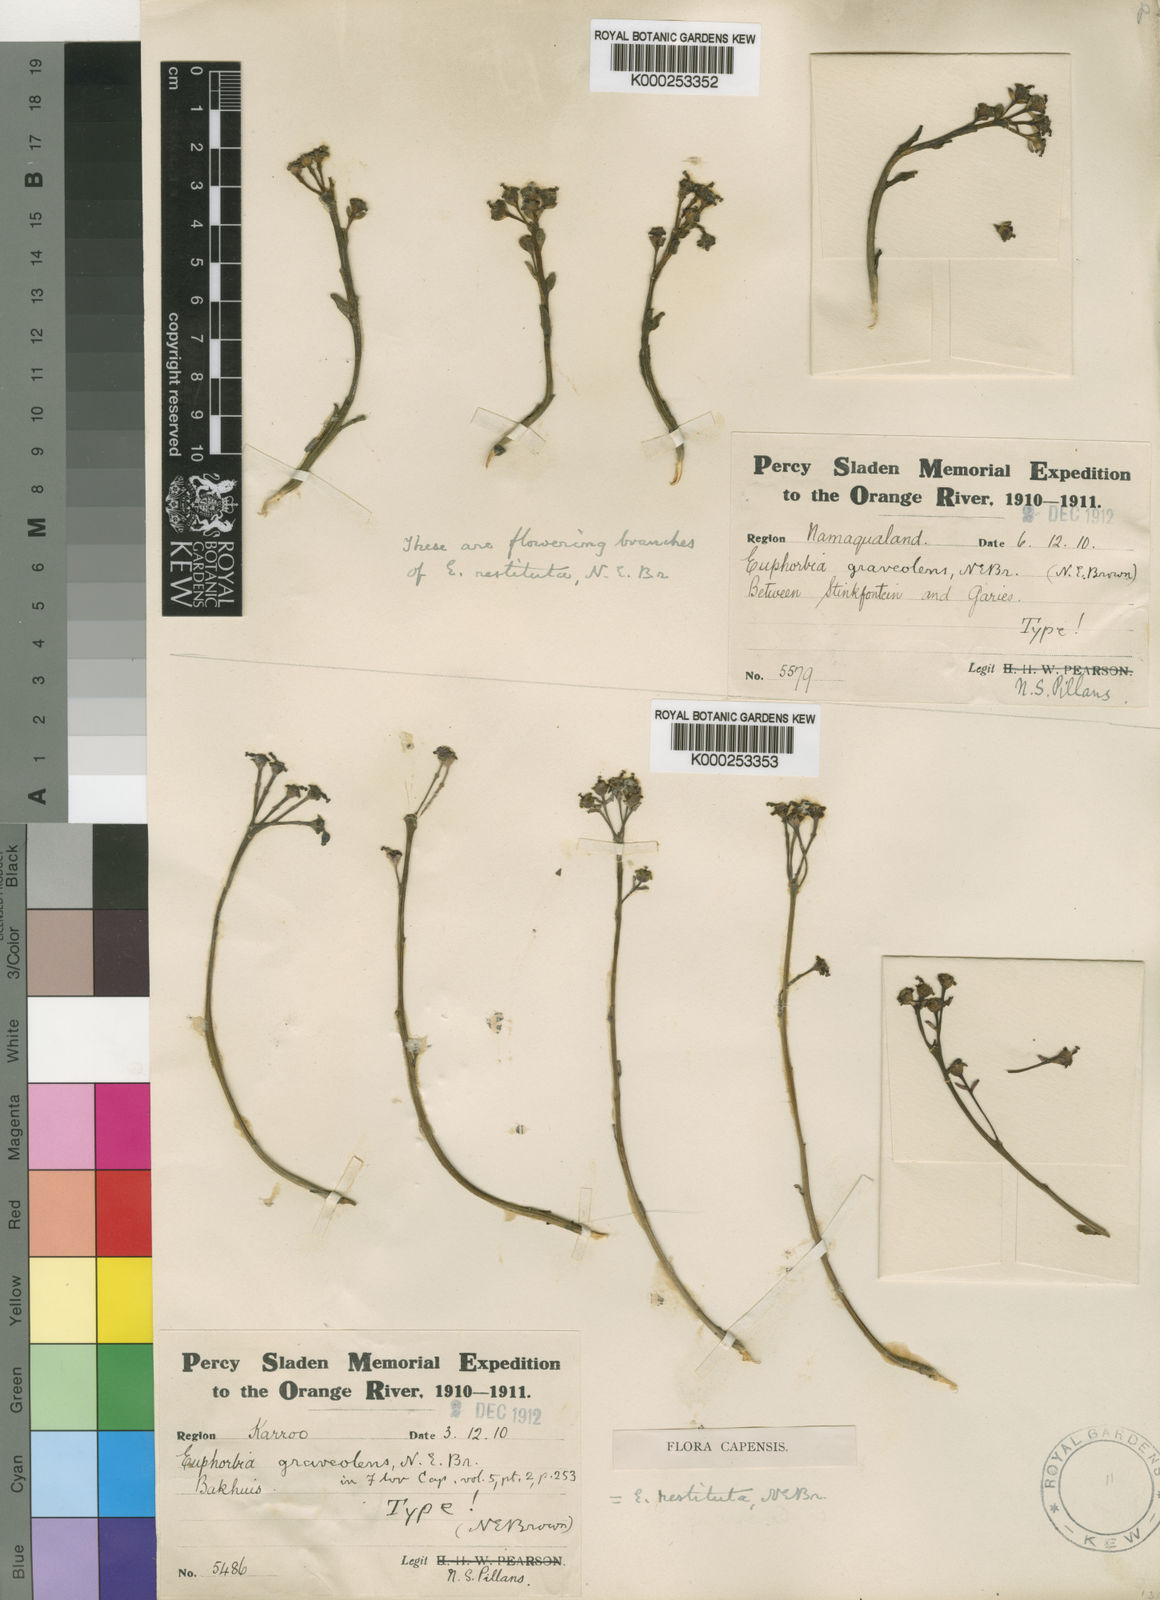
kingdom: Plantae
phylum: Tracheophyta
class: Magnoliopsida
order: Malpighiales
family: Euphorbiaceae
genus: Euphorbia
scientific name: Euphorbia restituta
